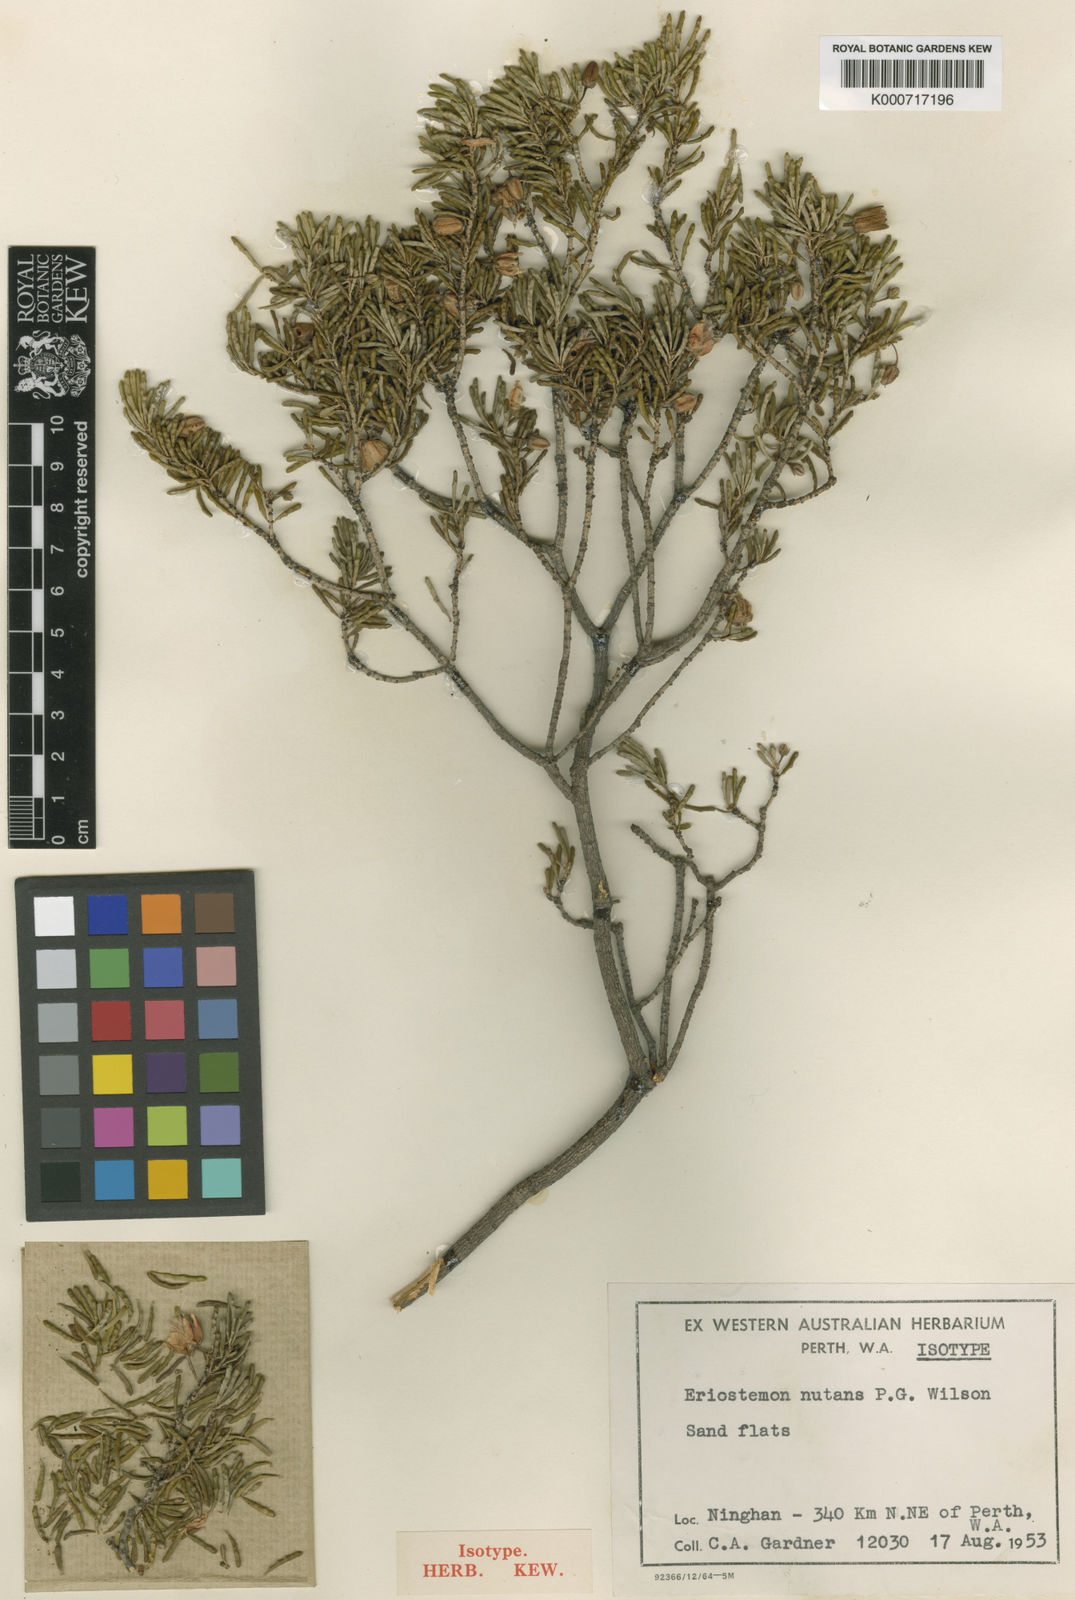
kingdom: Plantae
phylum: Tracheophyta
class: Magnoliopsida
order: Sapindales
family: Rutaceae
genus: Philotheca
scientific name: Philotheca nutans
